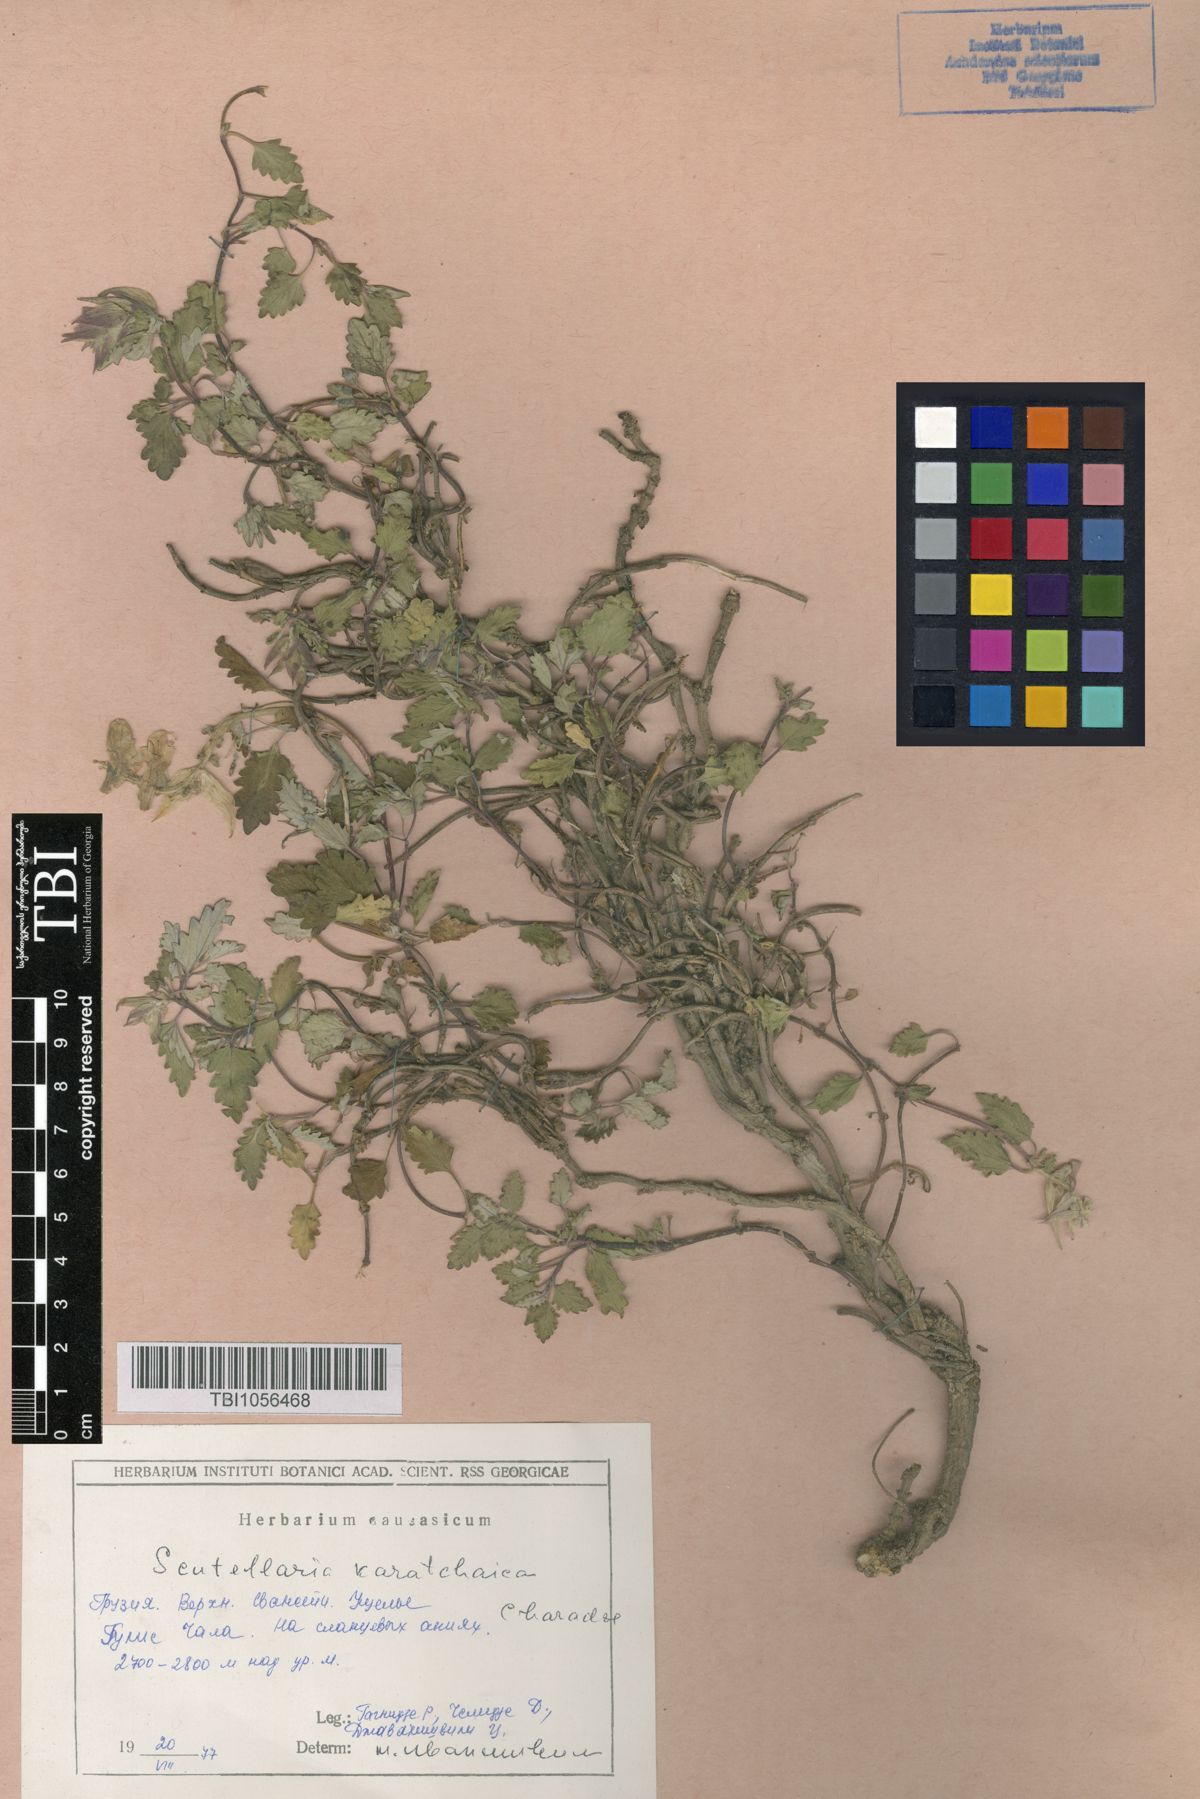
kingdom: Plantae
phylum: Tracheophyta
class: Magnoliopsida
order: Lamiales
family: Lamiaceae
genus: Scutellaria
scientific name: Scutellaria orientalis
